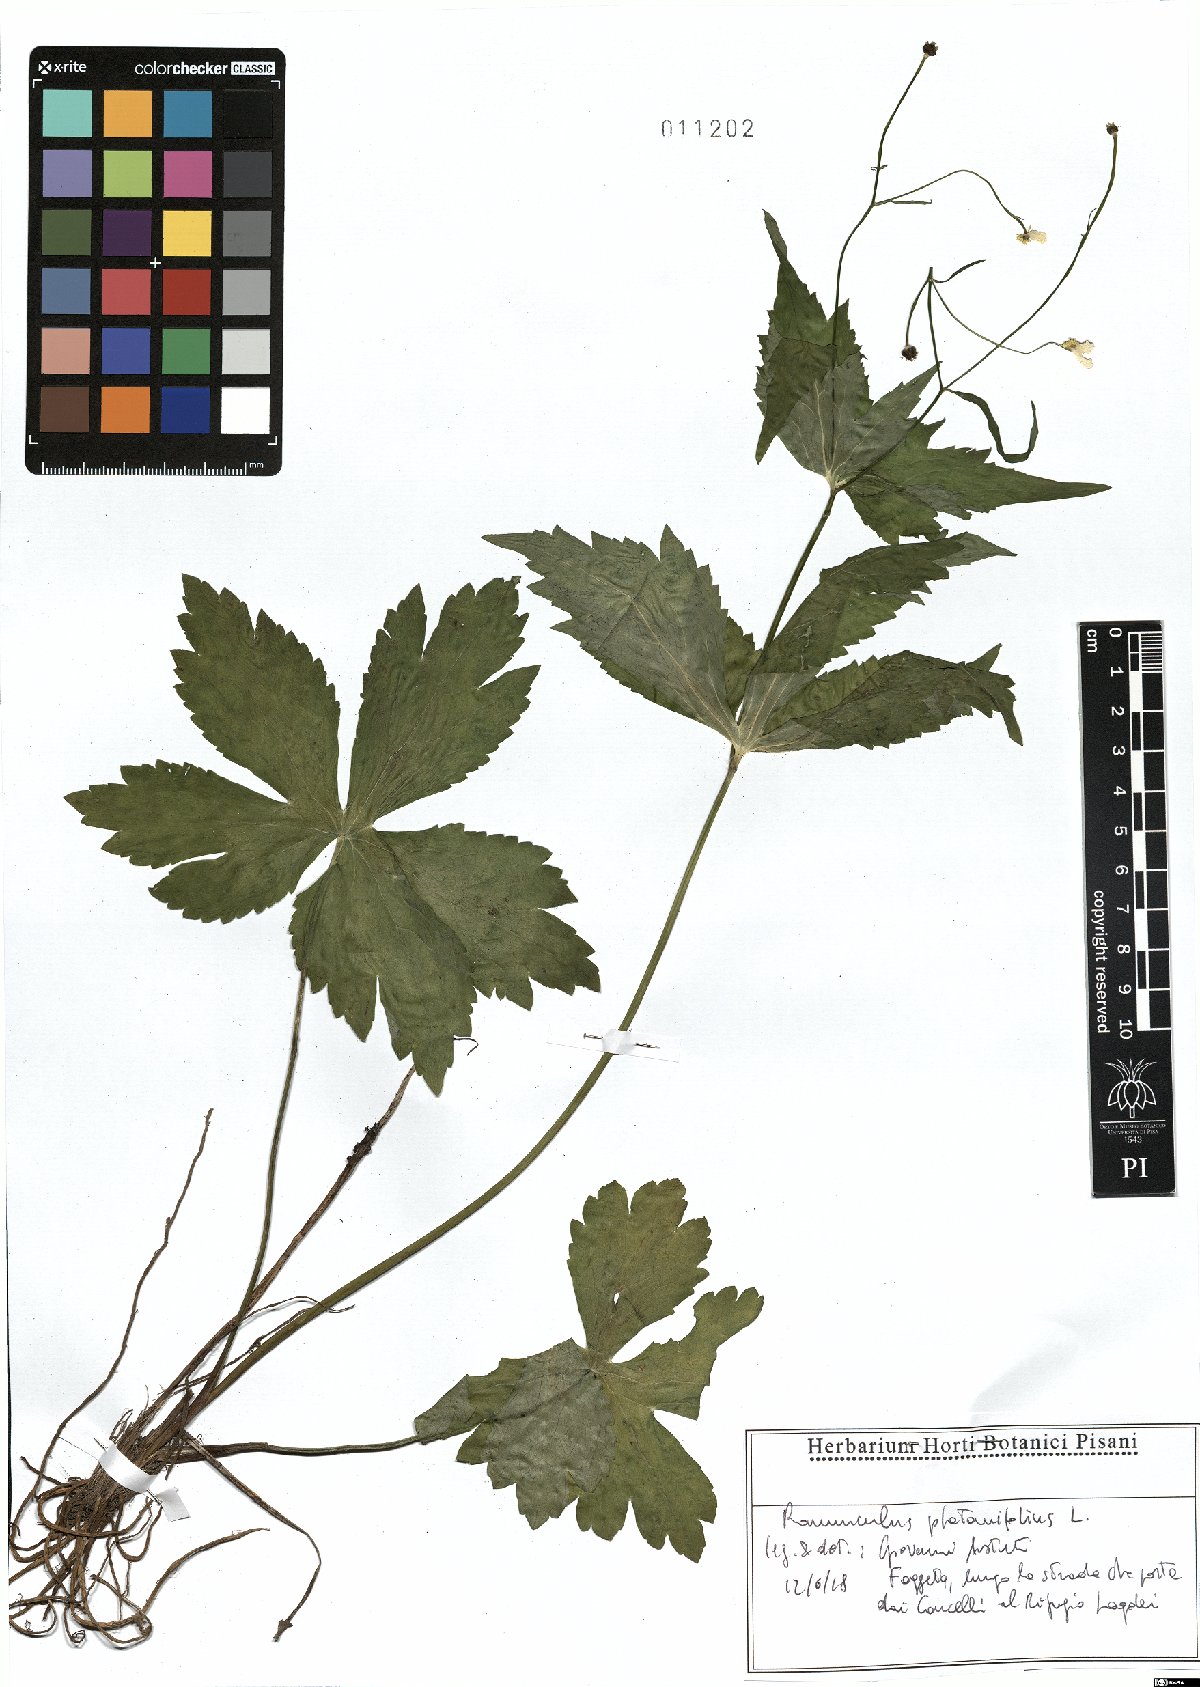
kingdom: Plantae
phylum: Tracheophyta
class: Magnoliopsida
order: Ranunculales
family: Ranunculaceae
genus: Ranunculus
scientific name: Ranunculus platanifolius
